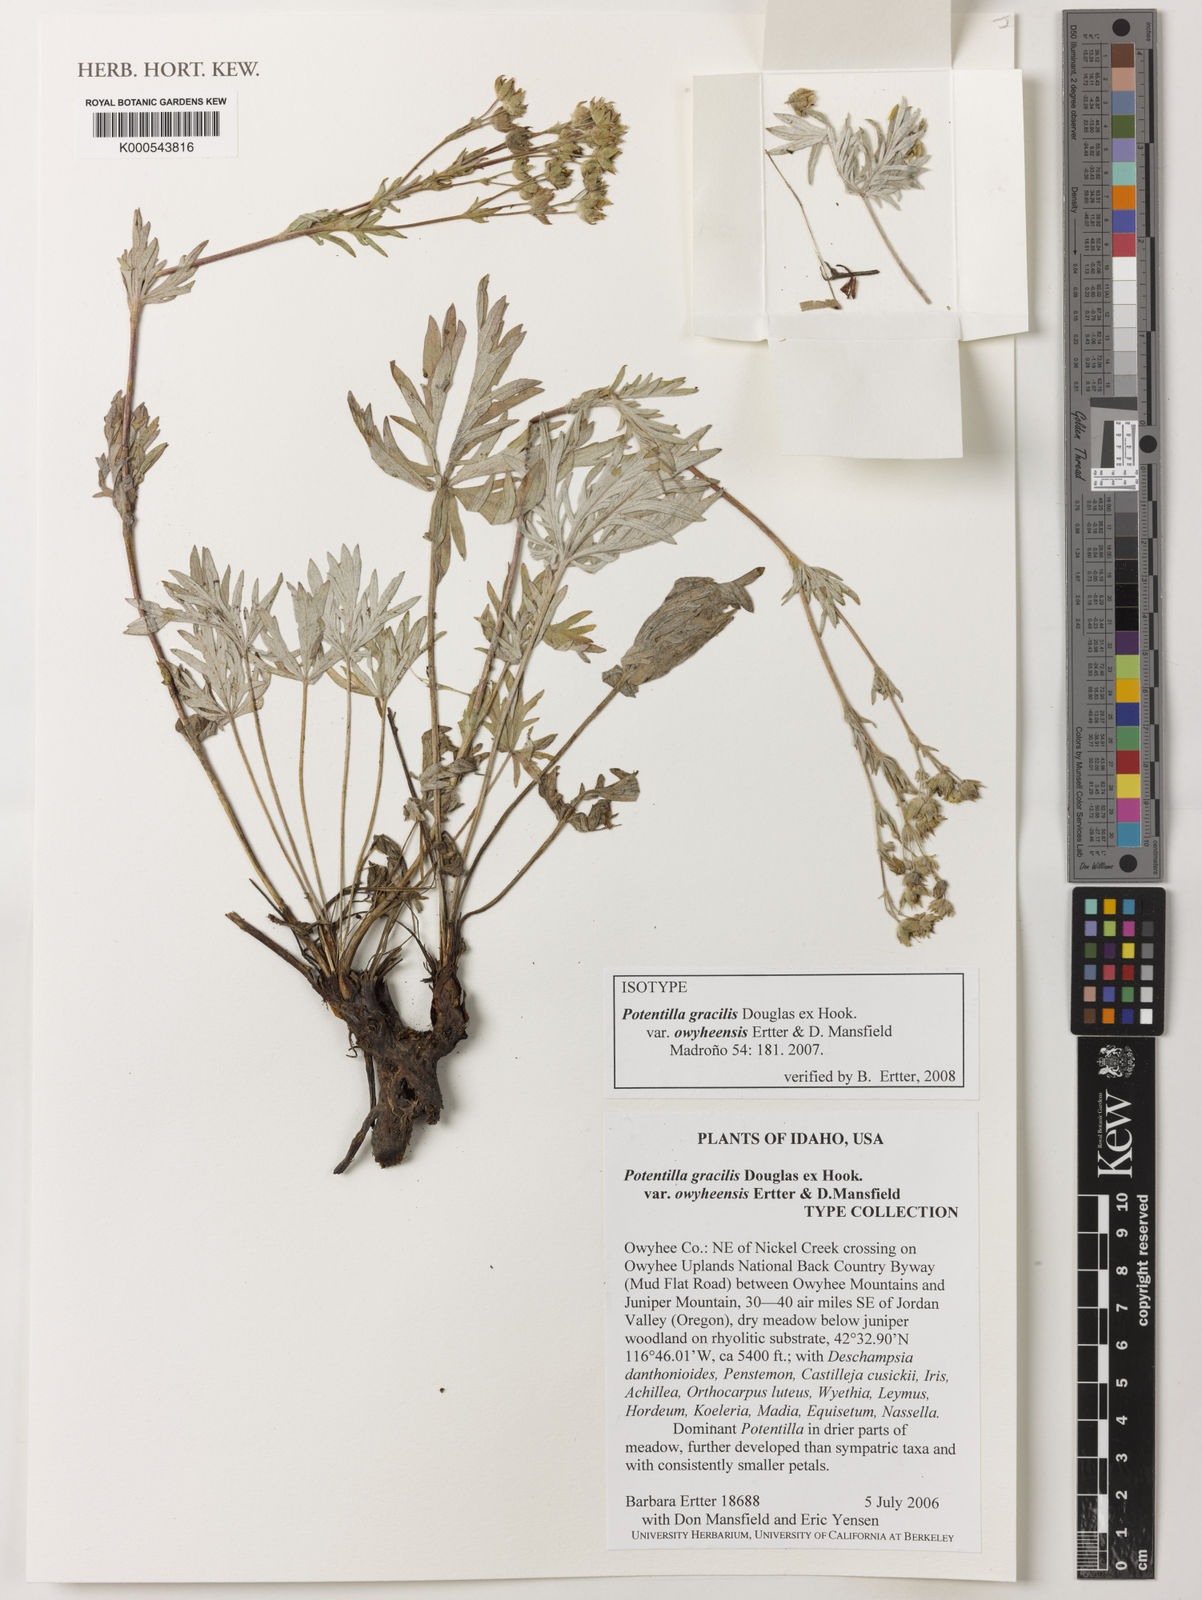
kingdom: Plantae
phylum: Tracheophyta
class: Magnoliopsida
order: Rosales
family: Rosaceae
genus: Potentilla
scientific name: Potentilla gracilis
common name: Graceful cinquefoil
